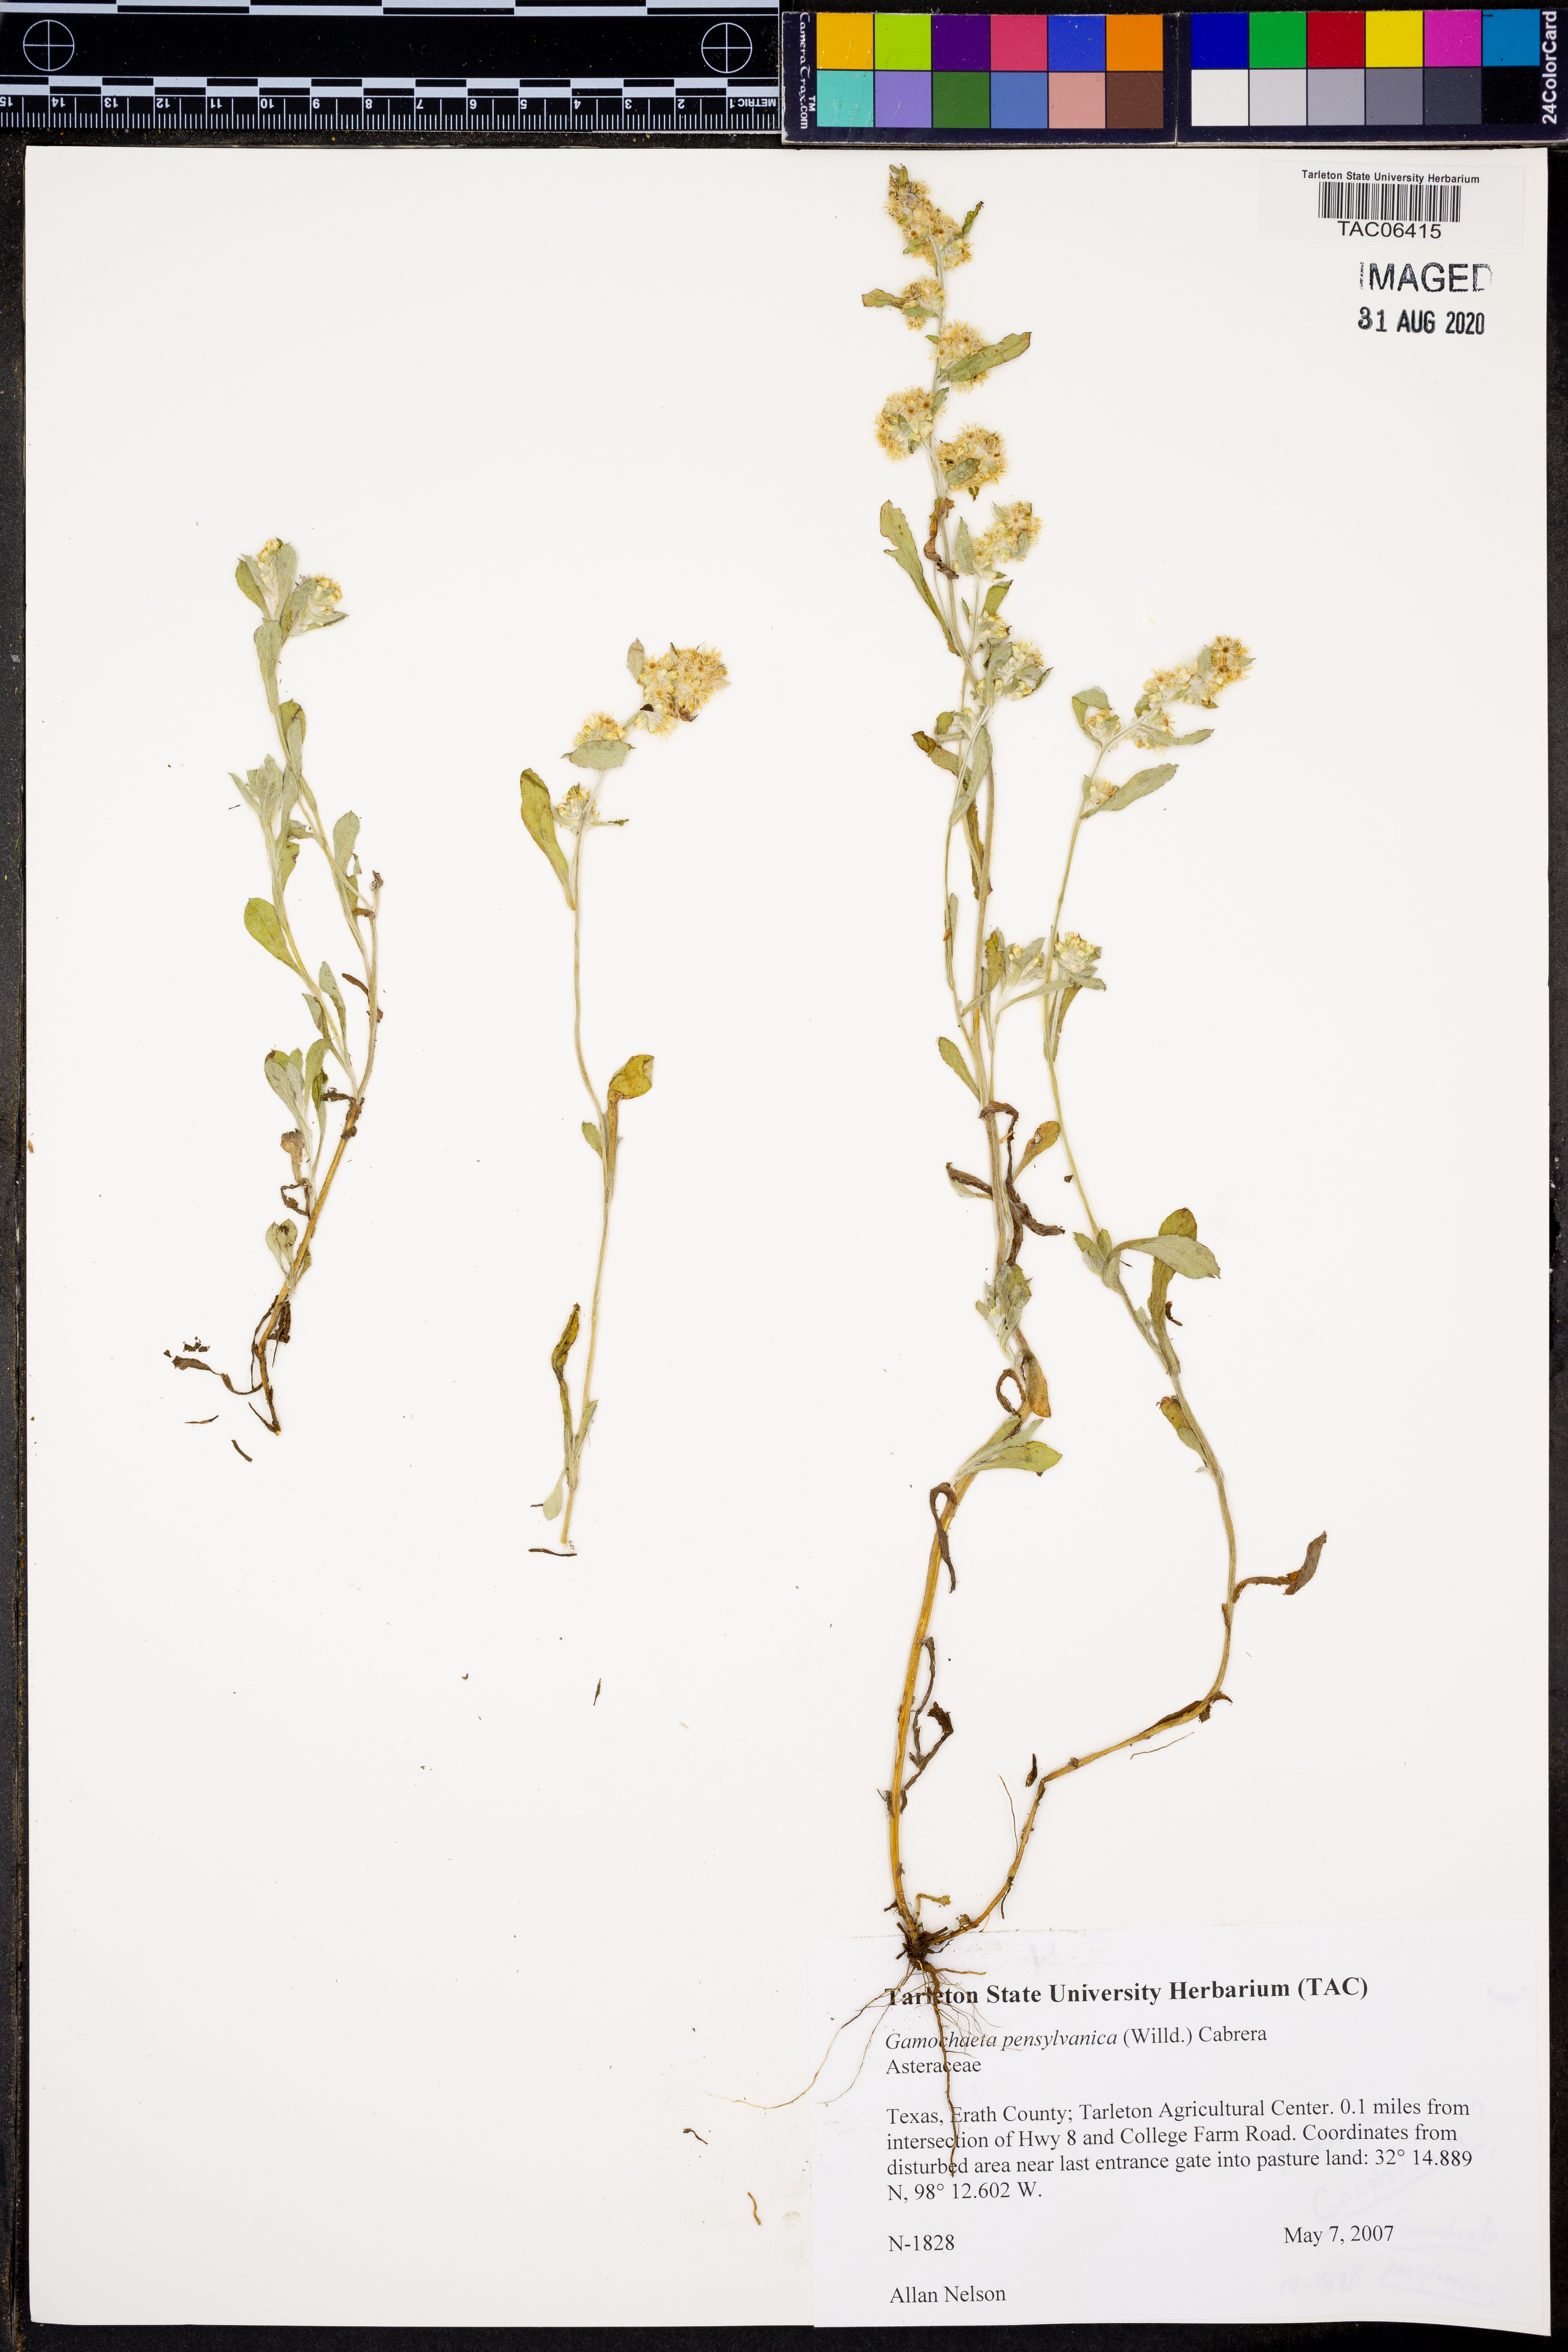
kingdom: Plantae
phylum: Tracheophyta
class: Magnoliopsida
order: Asterales
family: Asteraceae
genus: Gamochaeta
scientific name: Gamochaeta pensylvanica
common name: Pennsylvania everlasting
